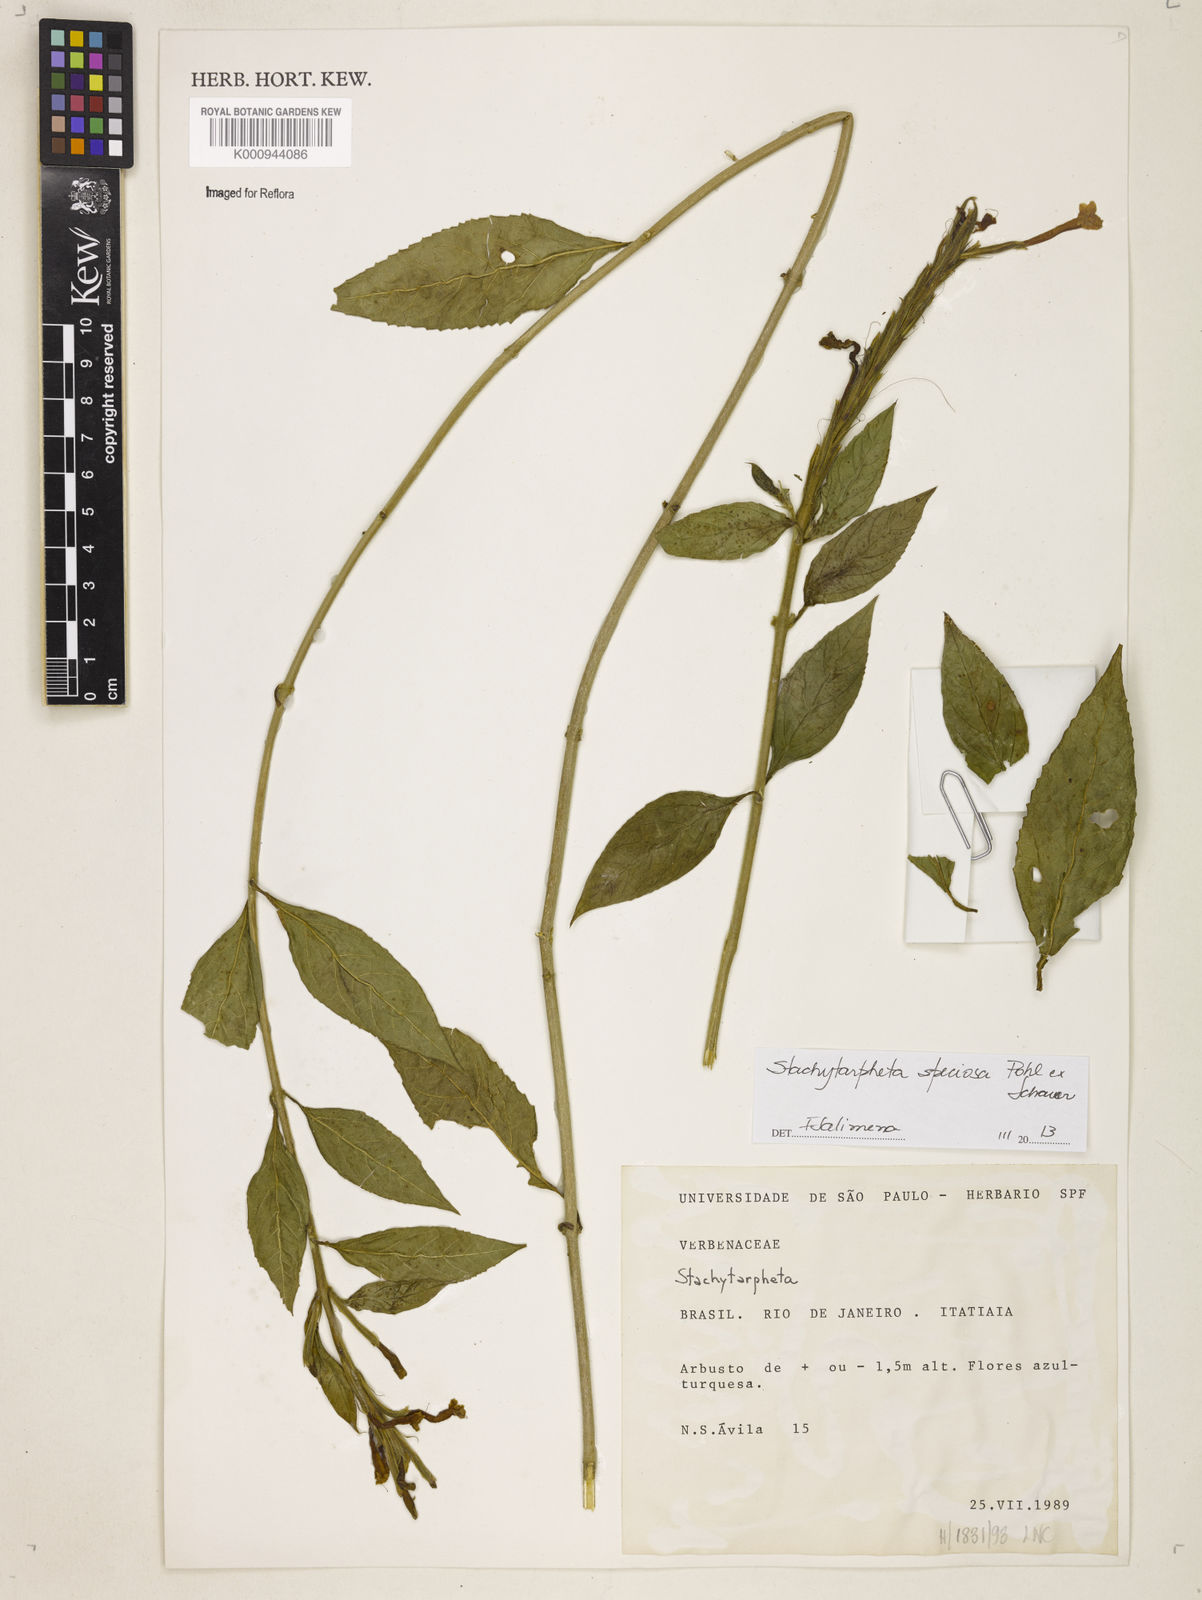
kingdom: Plantae
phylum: Tracheophyta
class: Magnoliopsida
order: Lamiales
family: Verbenaceae
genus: Stachytarpheta
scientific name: Stachytarpheta
